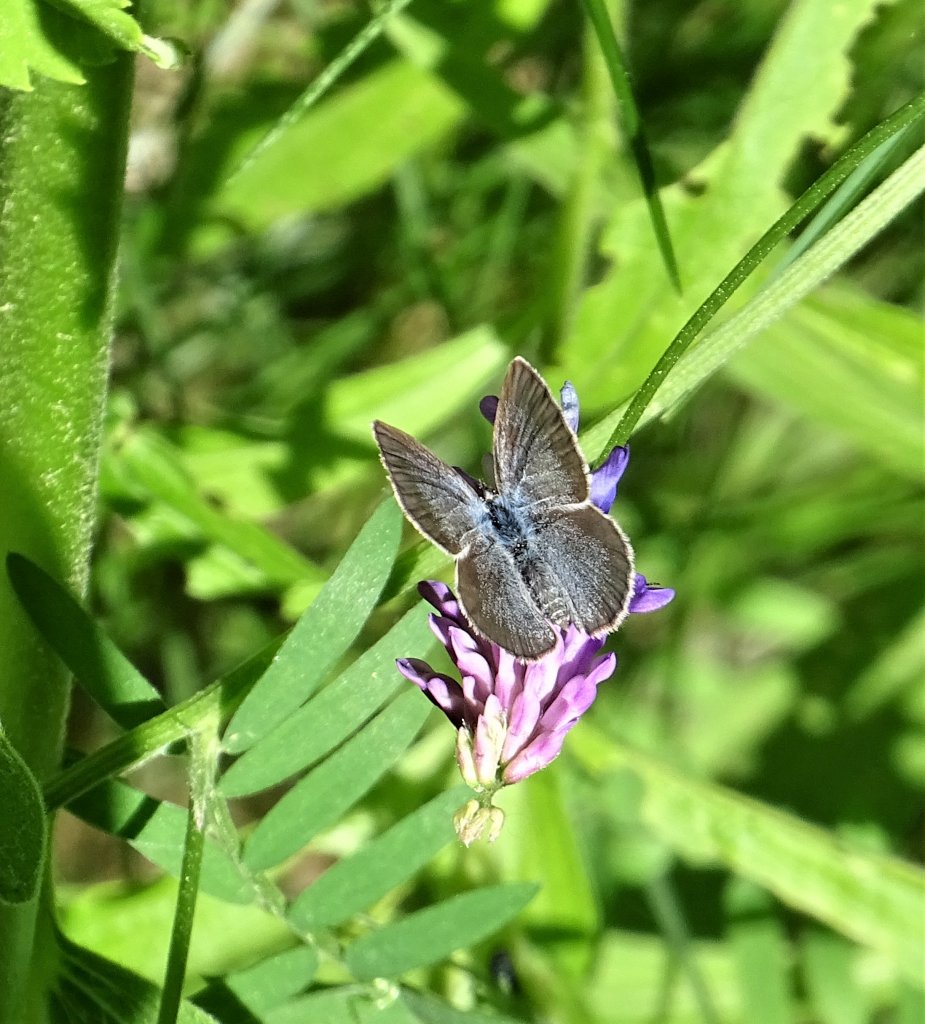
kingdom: Animalia
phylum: Arthropoda
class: Insecta
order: Lepidoptera
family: Lycaenidae
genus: Glaucopsyche
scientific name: Glaucopsyche lygdamus
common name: Silvery Blue
